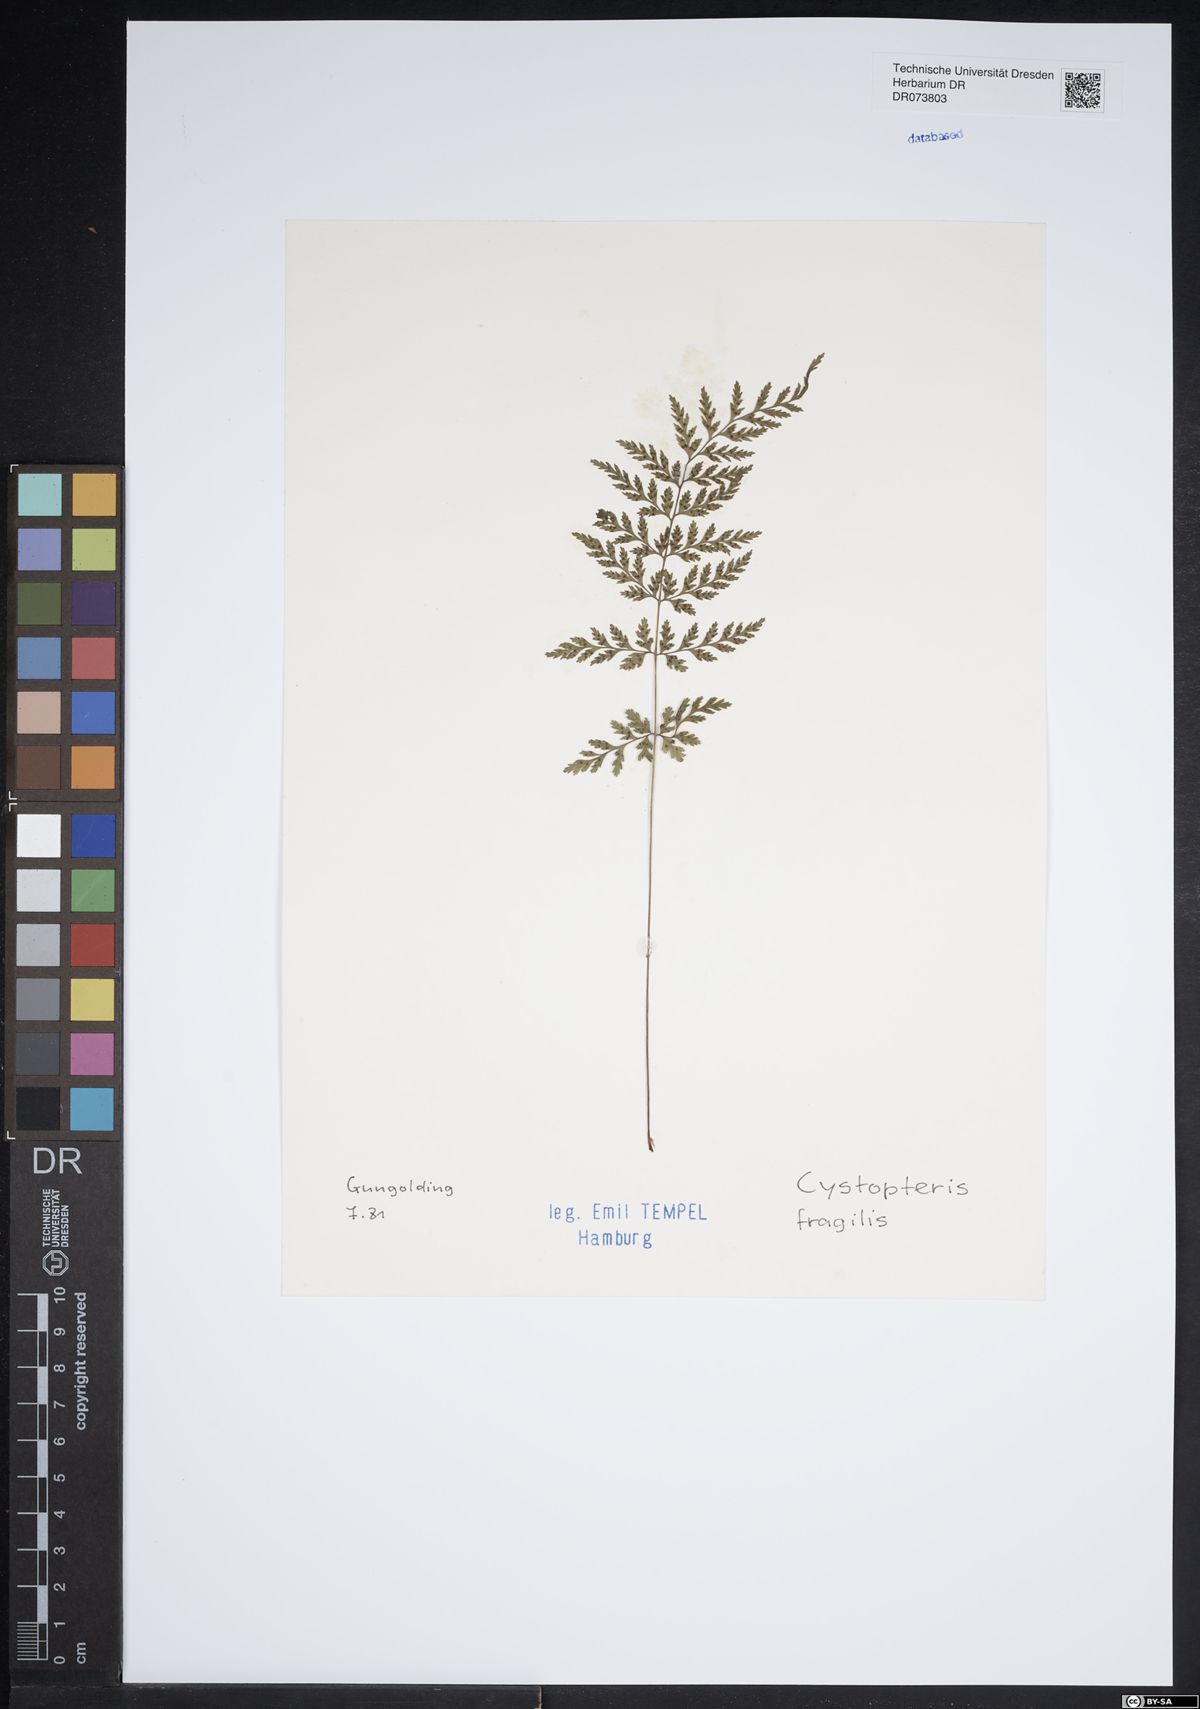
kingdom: Plantae
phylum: Tracheophyta
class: Polypodiopsida
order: Polypodiales
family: Cystopteridaceae
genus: Cystopteris
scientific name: Cystopteris fragilis
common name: Brittle bladder fern
